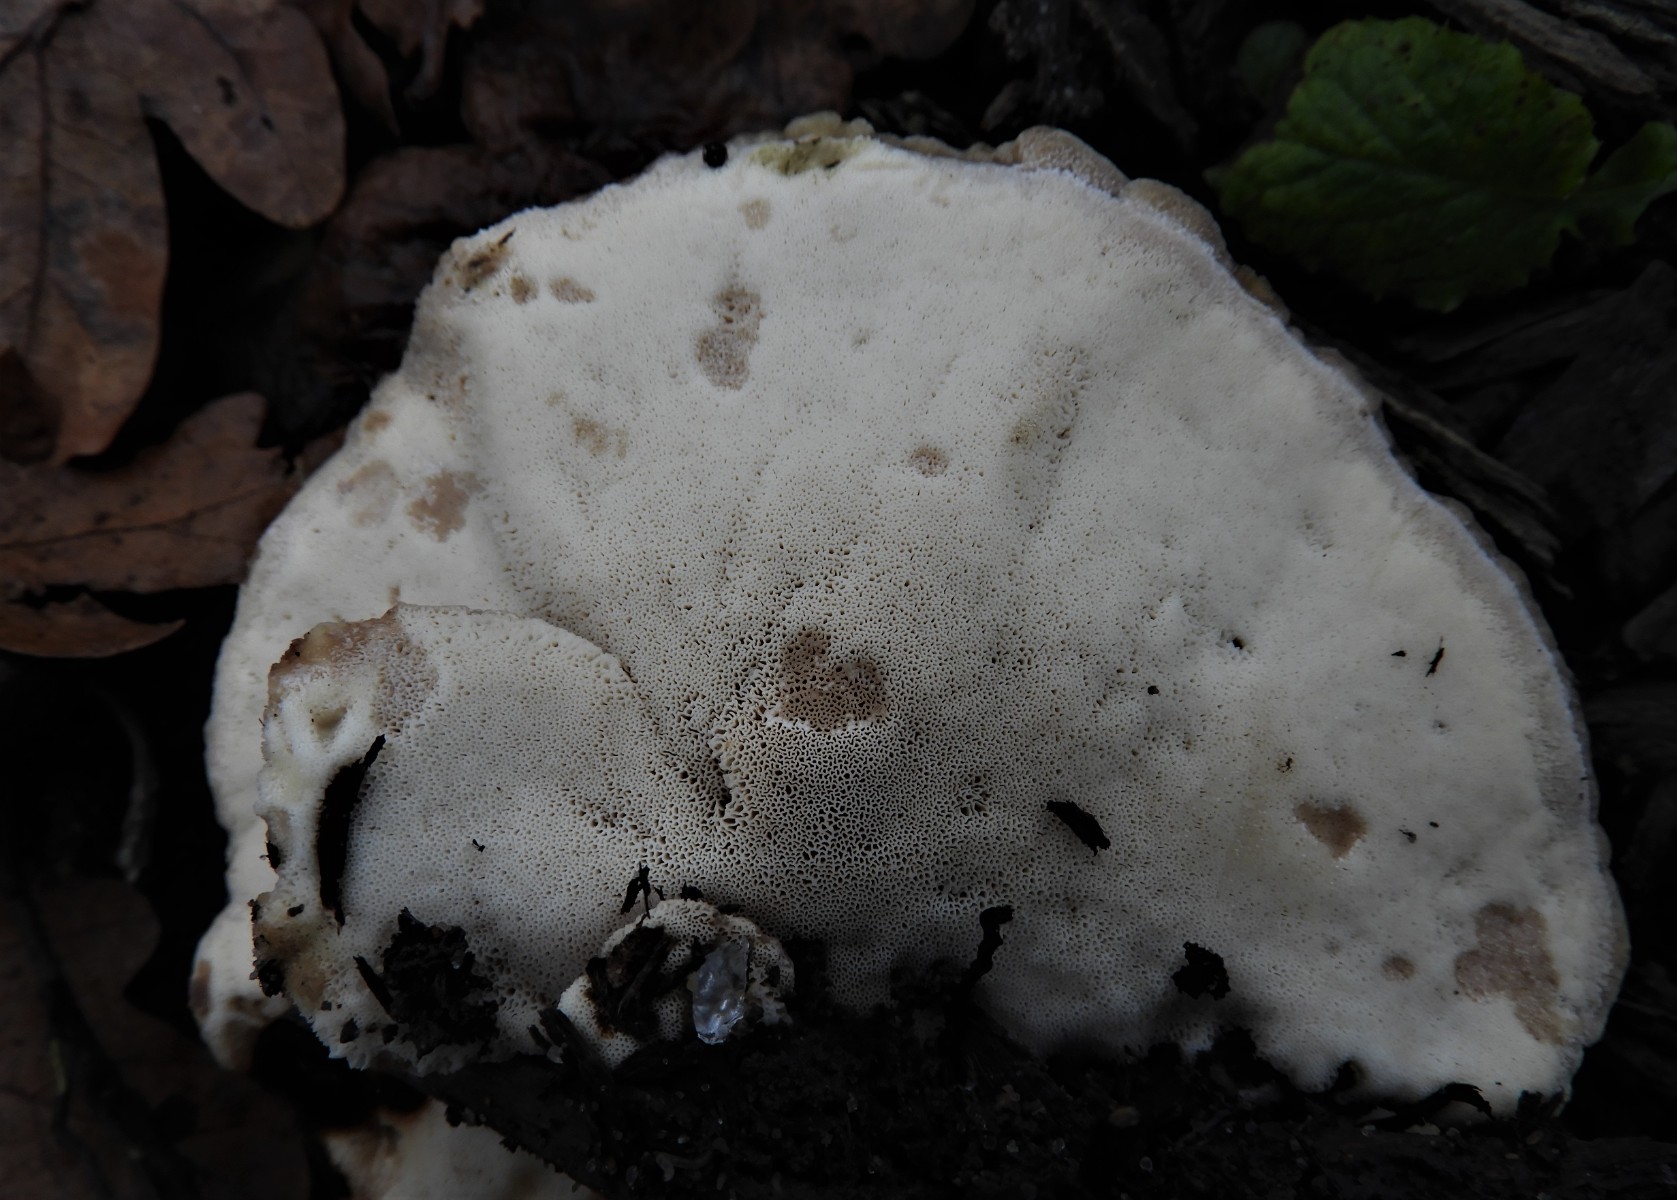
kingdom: Fungi
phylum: Basidiomycota
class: Agaricomycetes
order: Polyporales
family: Meripilaceae
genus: Meripilus
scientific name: Meripilus giganteus
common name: kæmpeporesvamp
